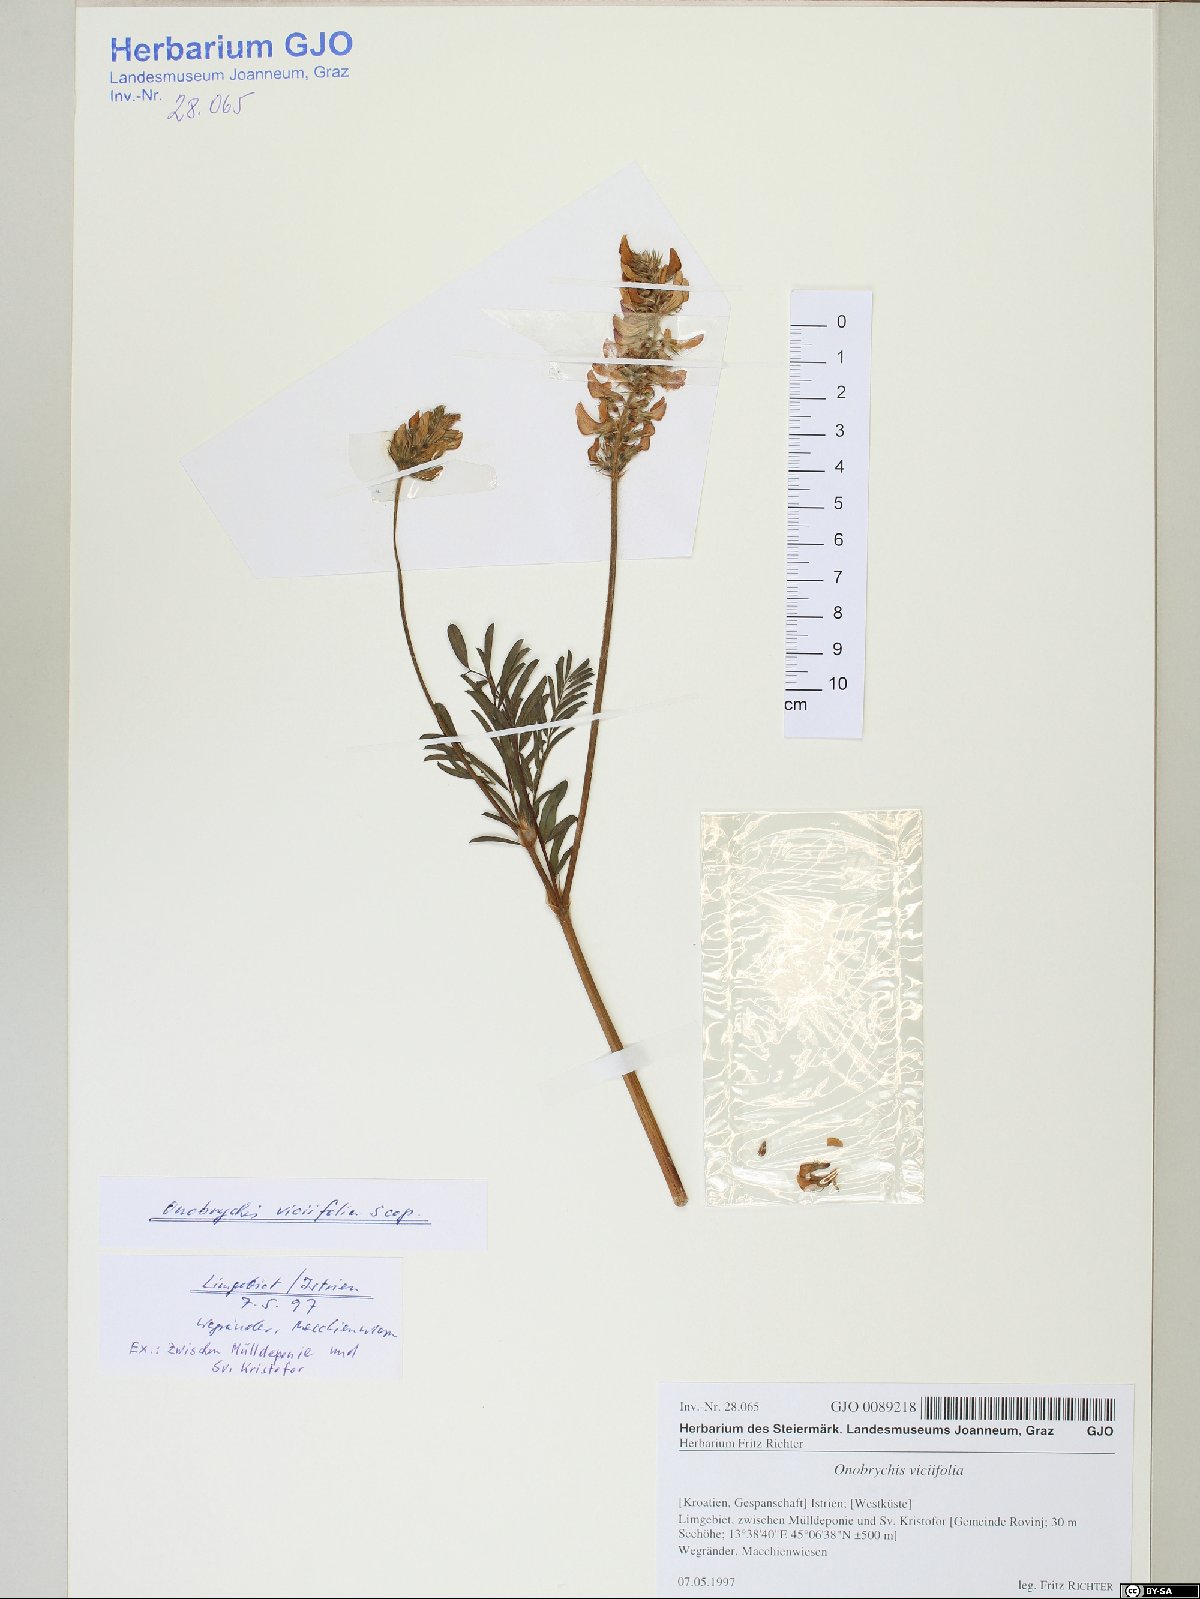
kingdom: Plantae
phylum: Tracheophyta
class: Magnoliopsida
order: Fabales
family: Fabaceae
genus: Onobrychis
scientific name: Onobrychis viciifolia
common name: Sainfoin
